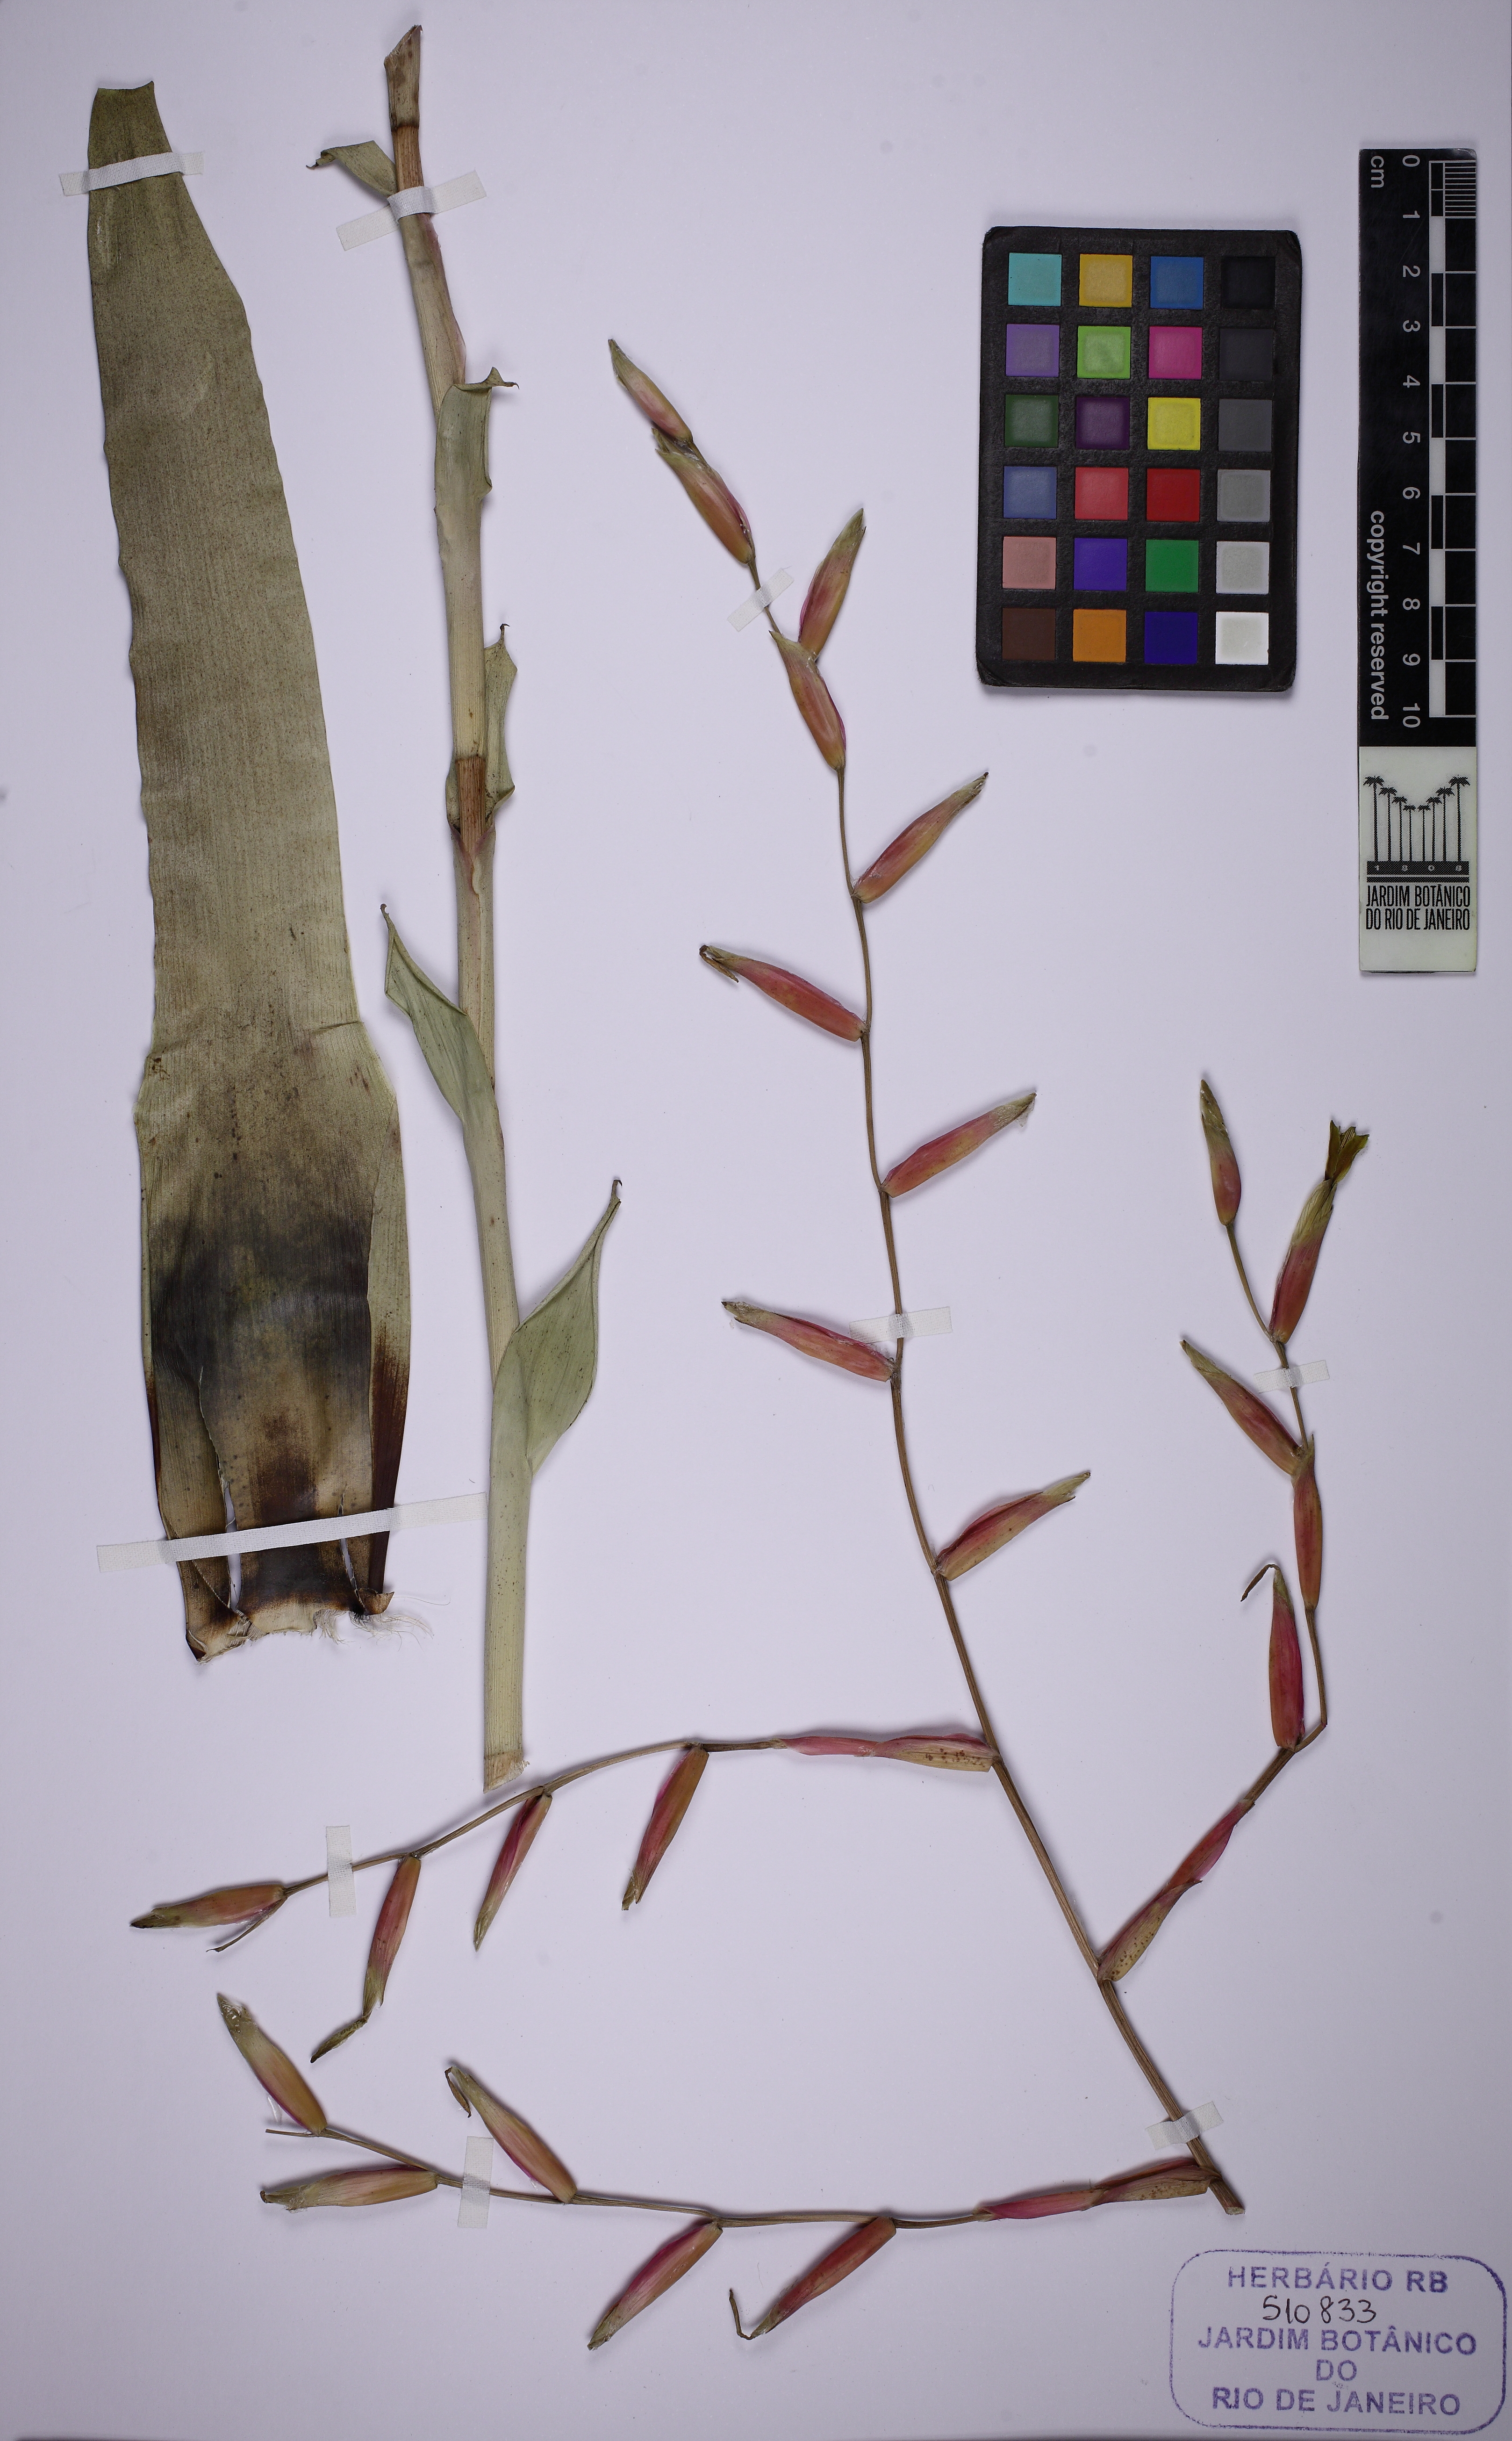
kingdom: Plantae
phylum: Tracheophyta
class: Liliopsida
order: Poales
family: Bromeliaceae
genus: Vriesea
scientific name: Vriesea procera
